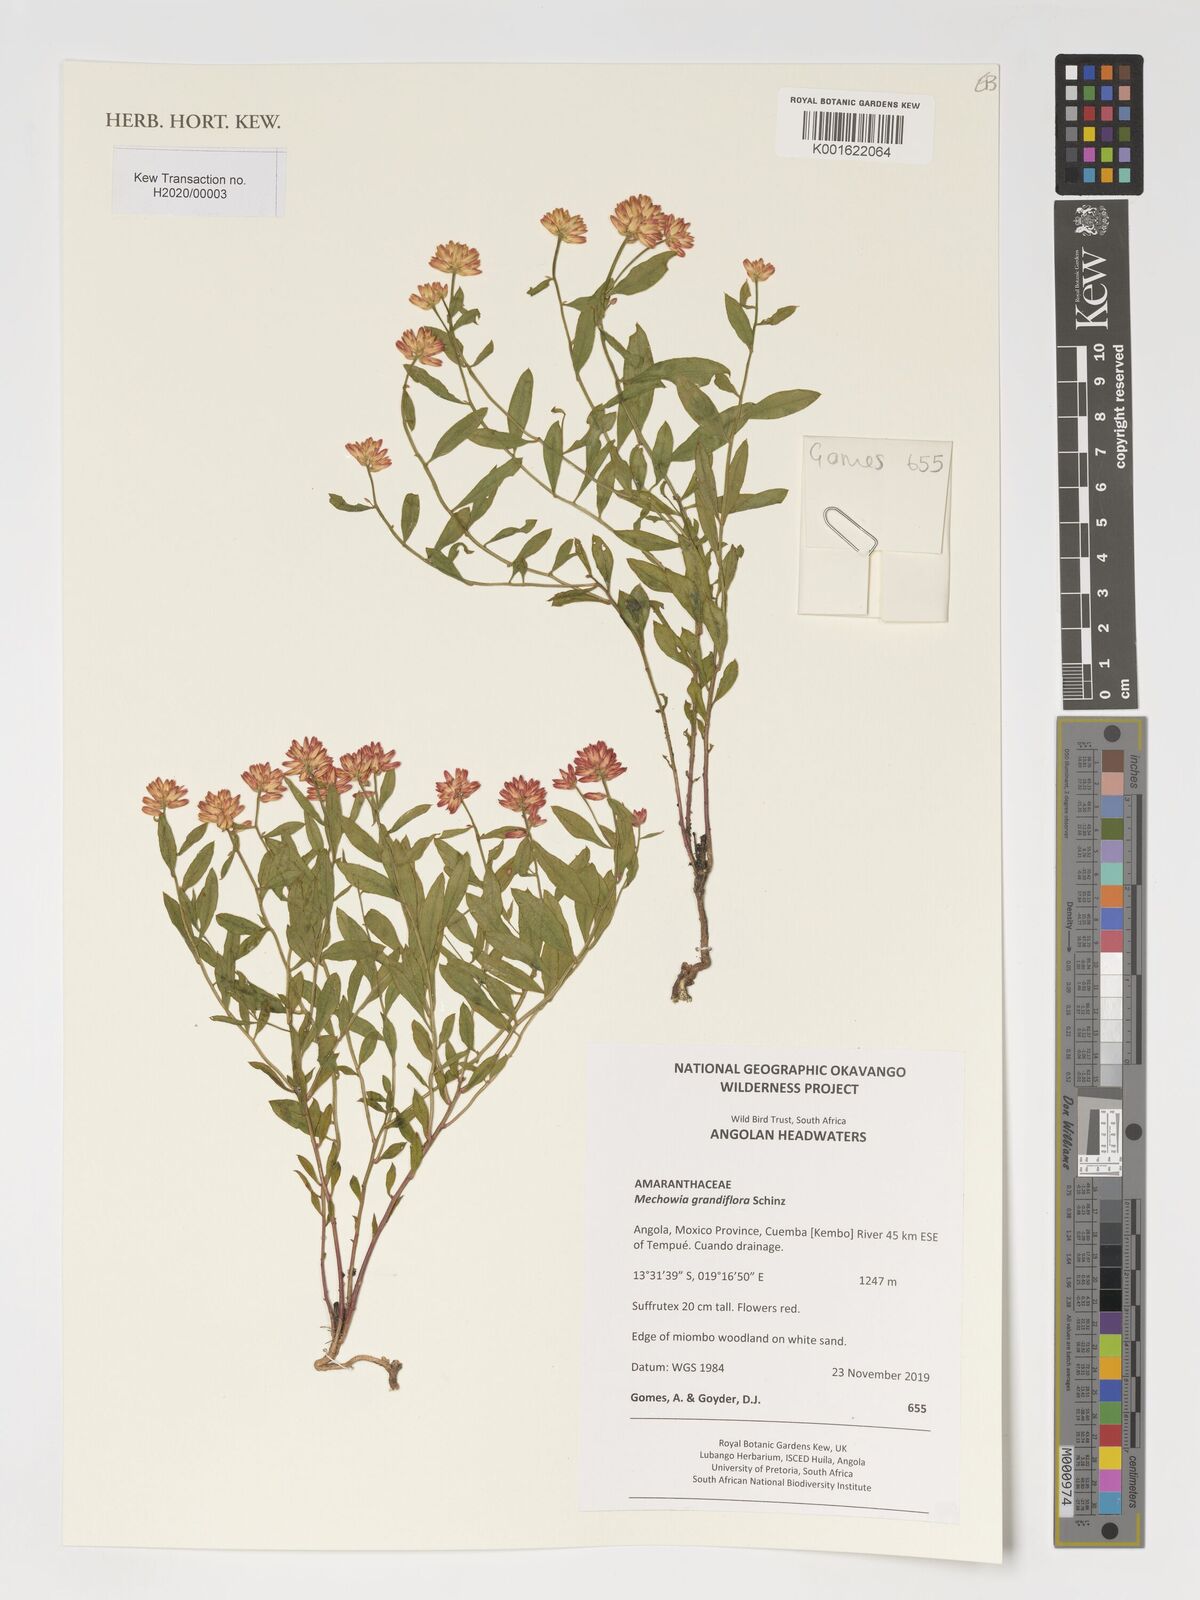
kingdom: Plantae
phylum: Tracheophyta
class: Magnoliopsida
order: Caryophyllales
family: Amaranthaceae
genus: Mechowia
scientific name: Mechowia grandiflora
